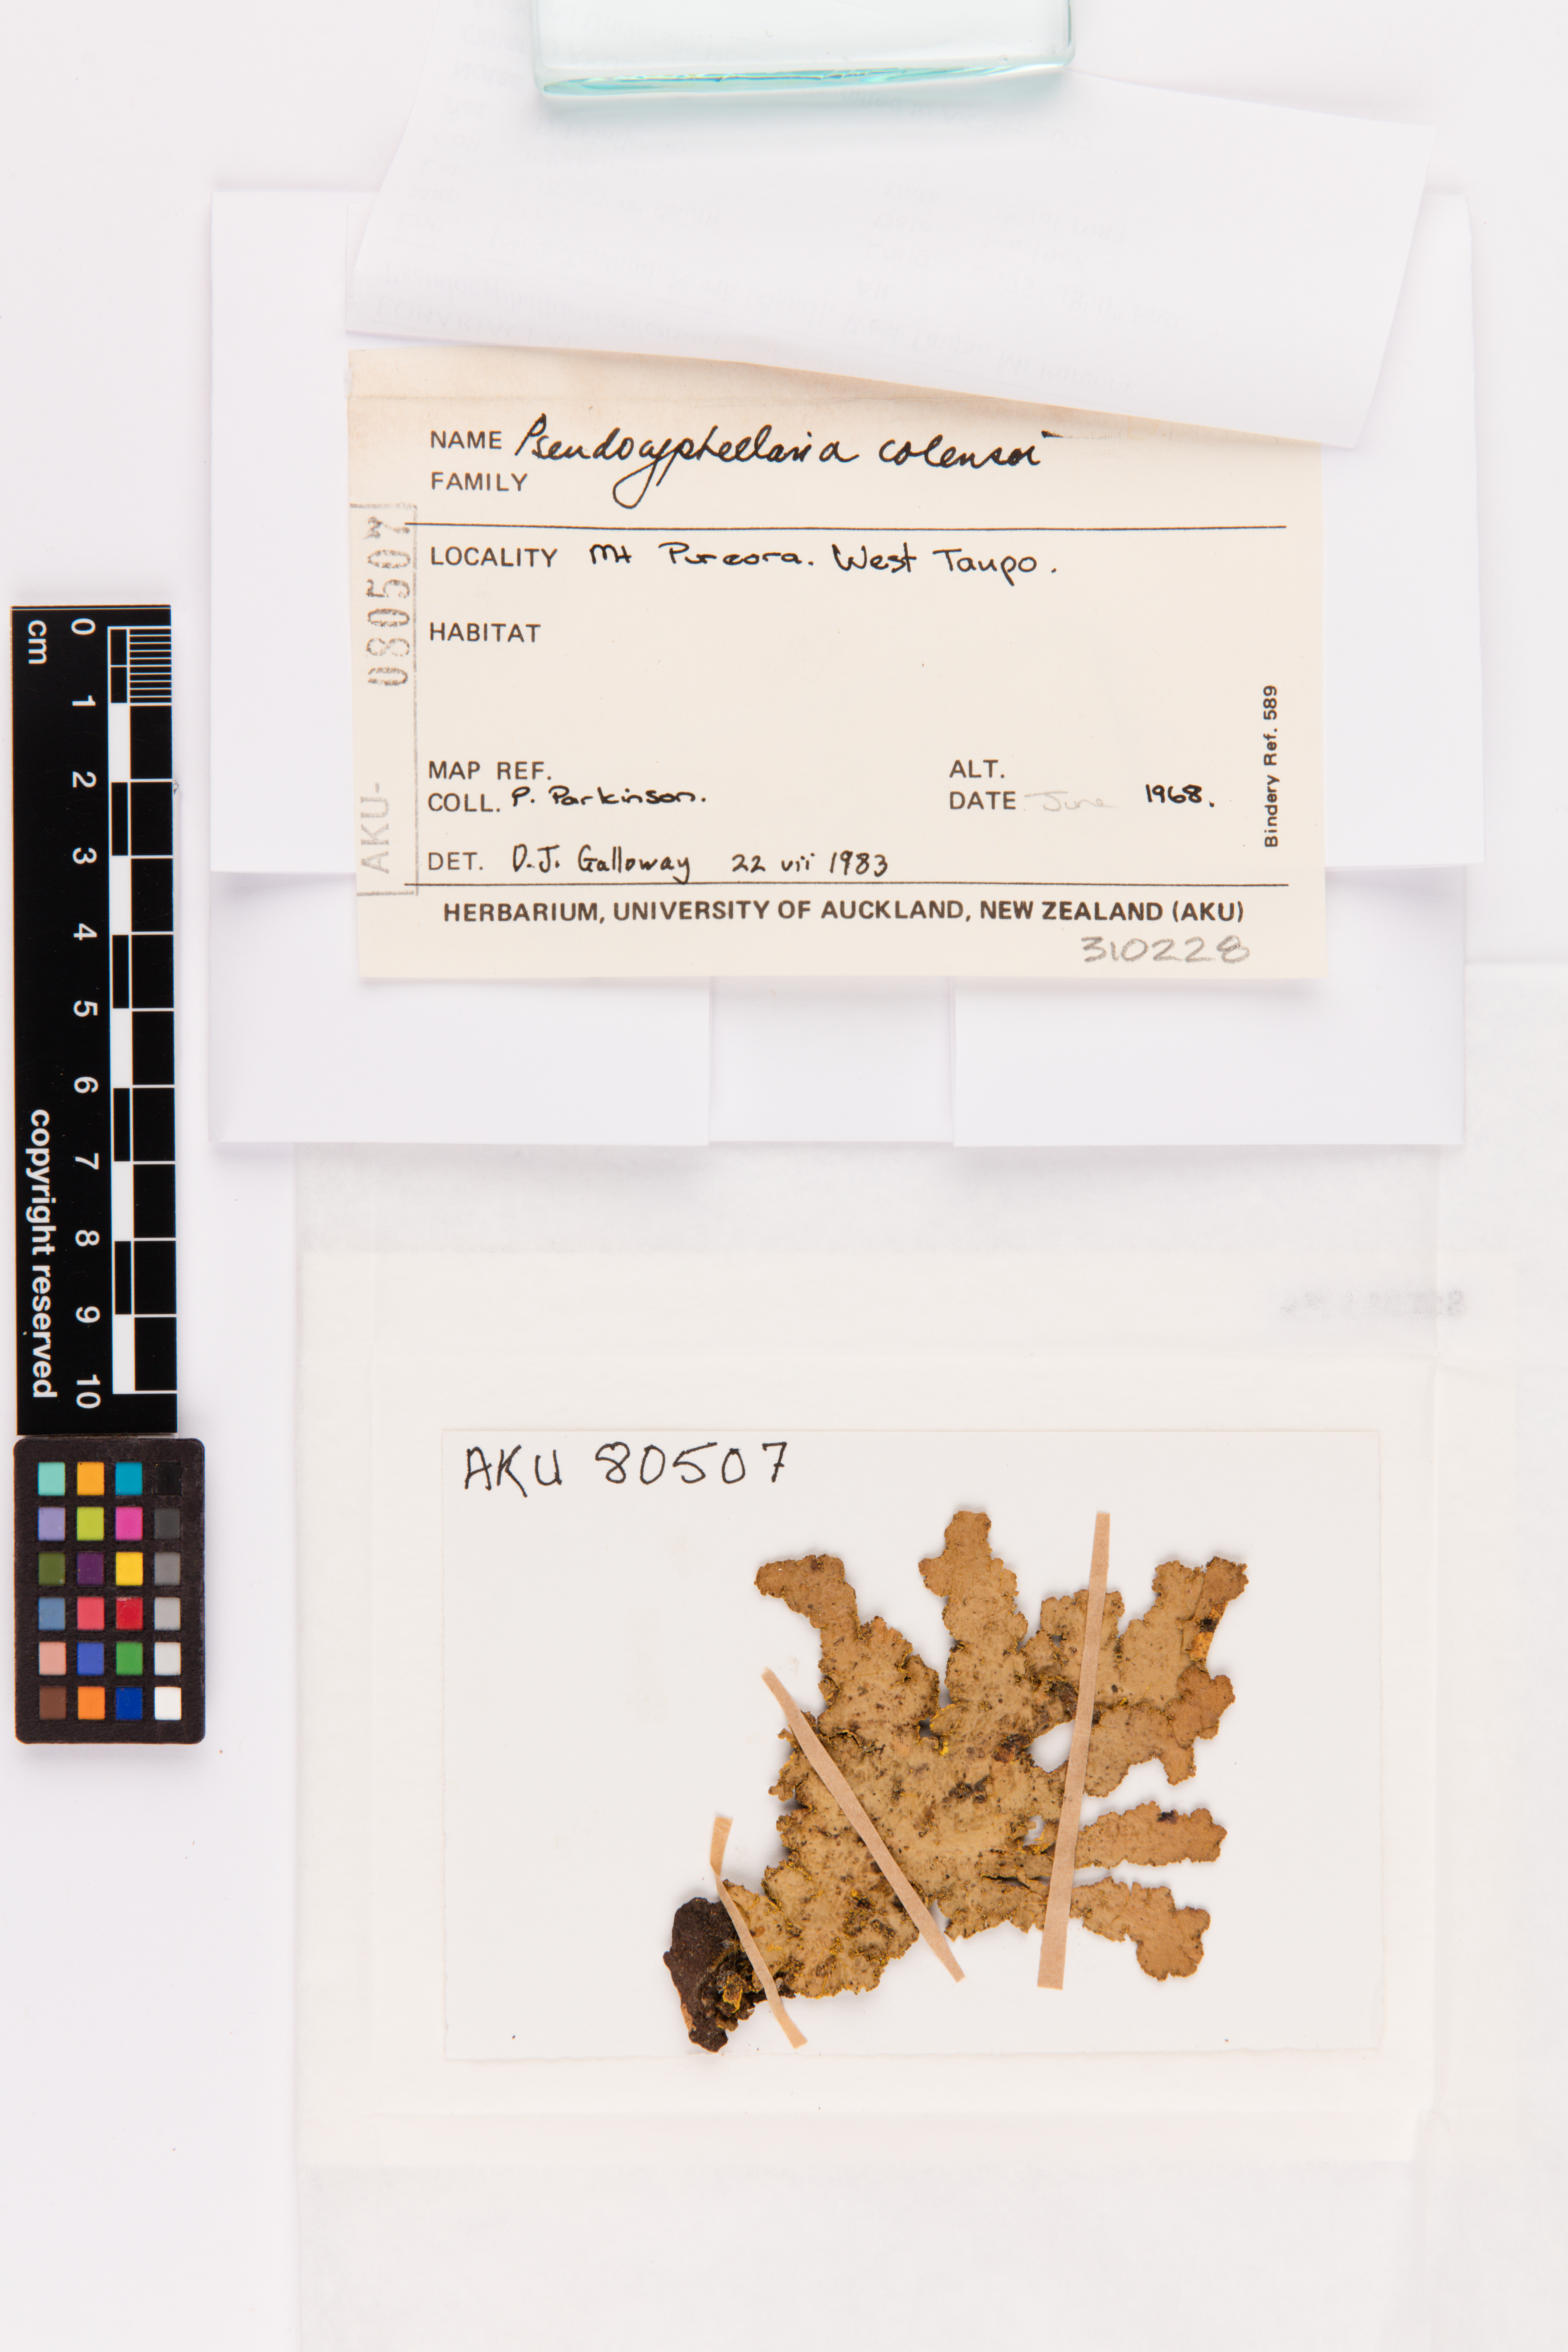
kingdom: Fungi
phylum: Ascomycota
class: Lecanoromycetes
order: Peltigerales
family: Lobariaceae
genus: Yarrumia
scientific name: Yarrumia colensoi
